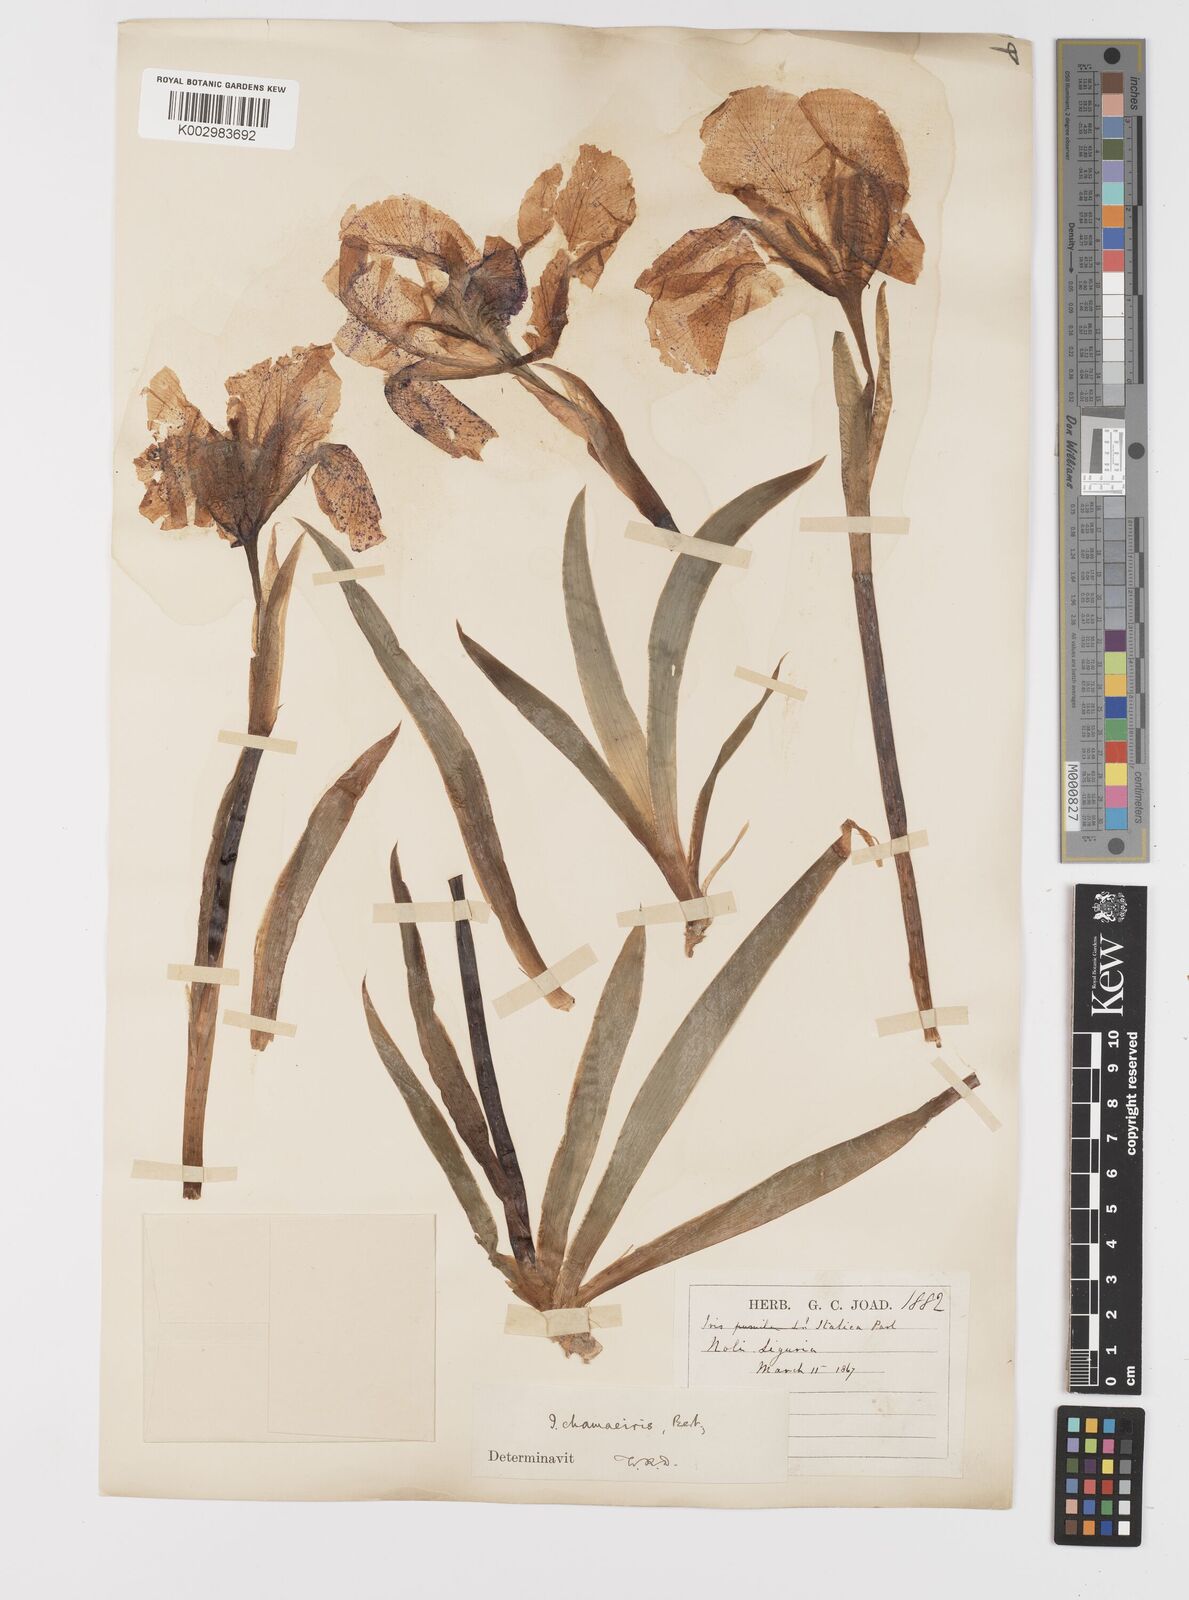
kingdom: Plantae
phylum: Tracheophyta
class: Liliopsida
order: Asparagales
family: Iridaceae
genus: Iris
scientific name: Iris lutescens
